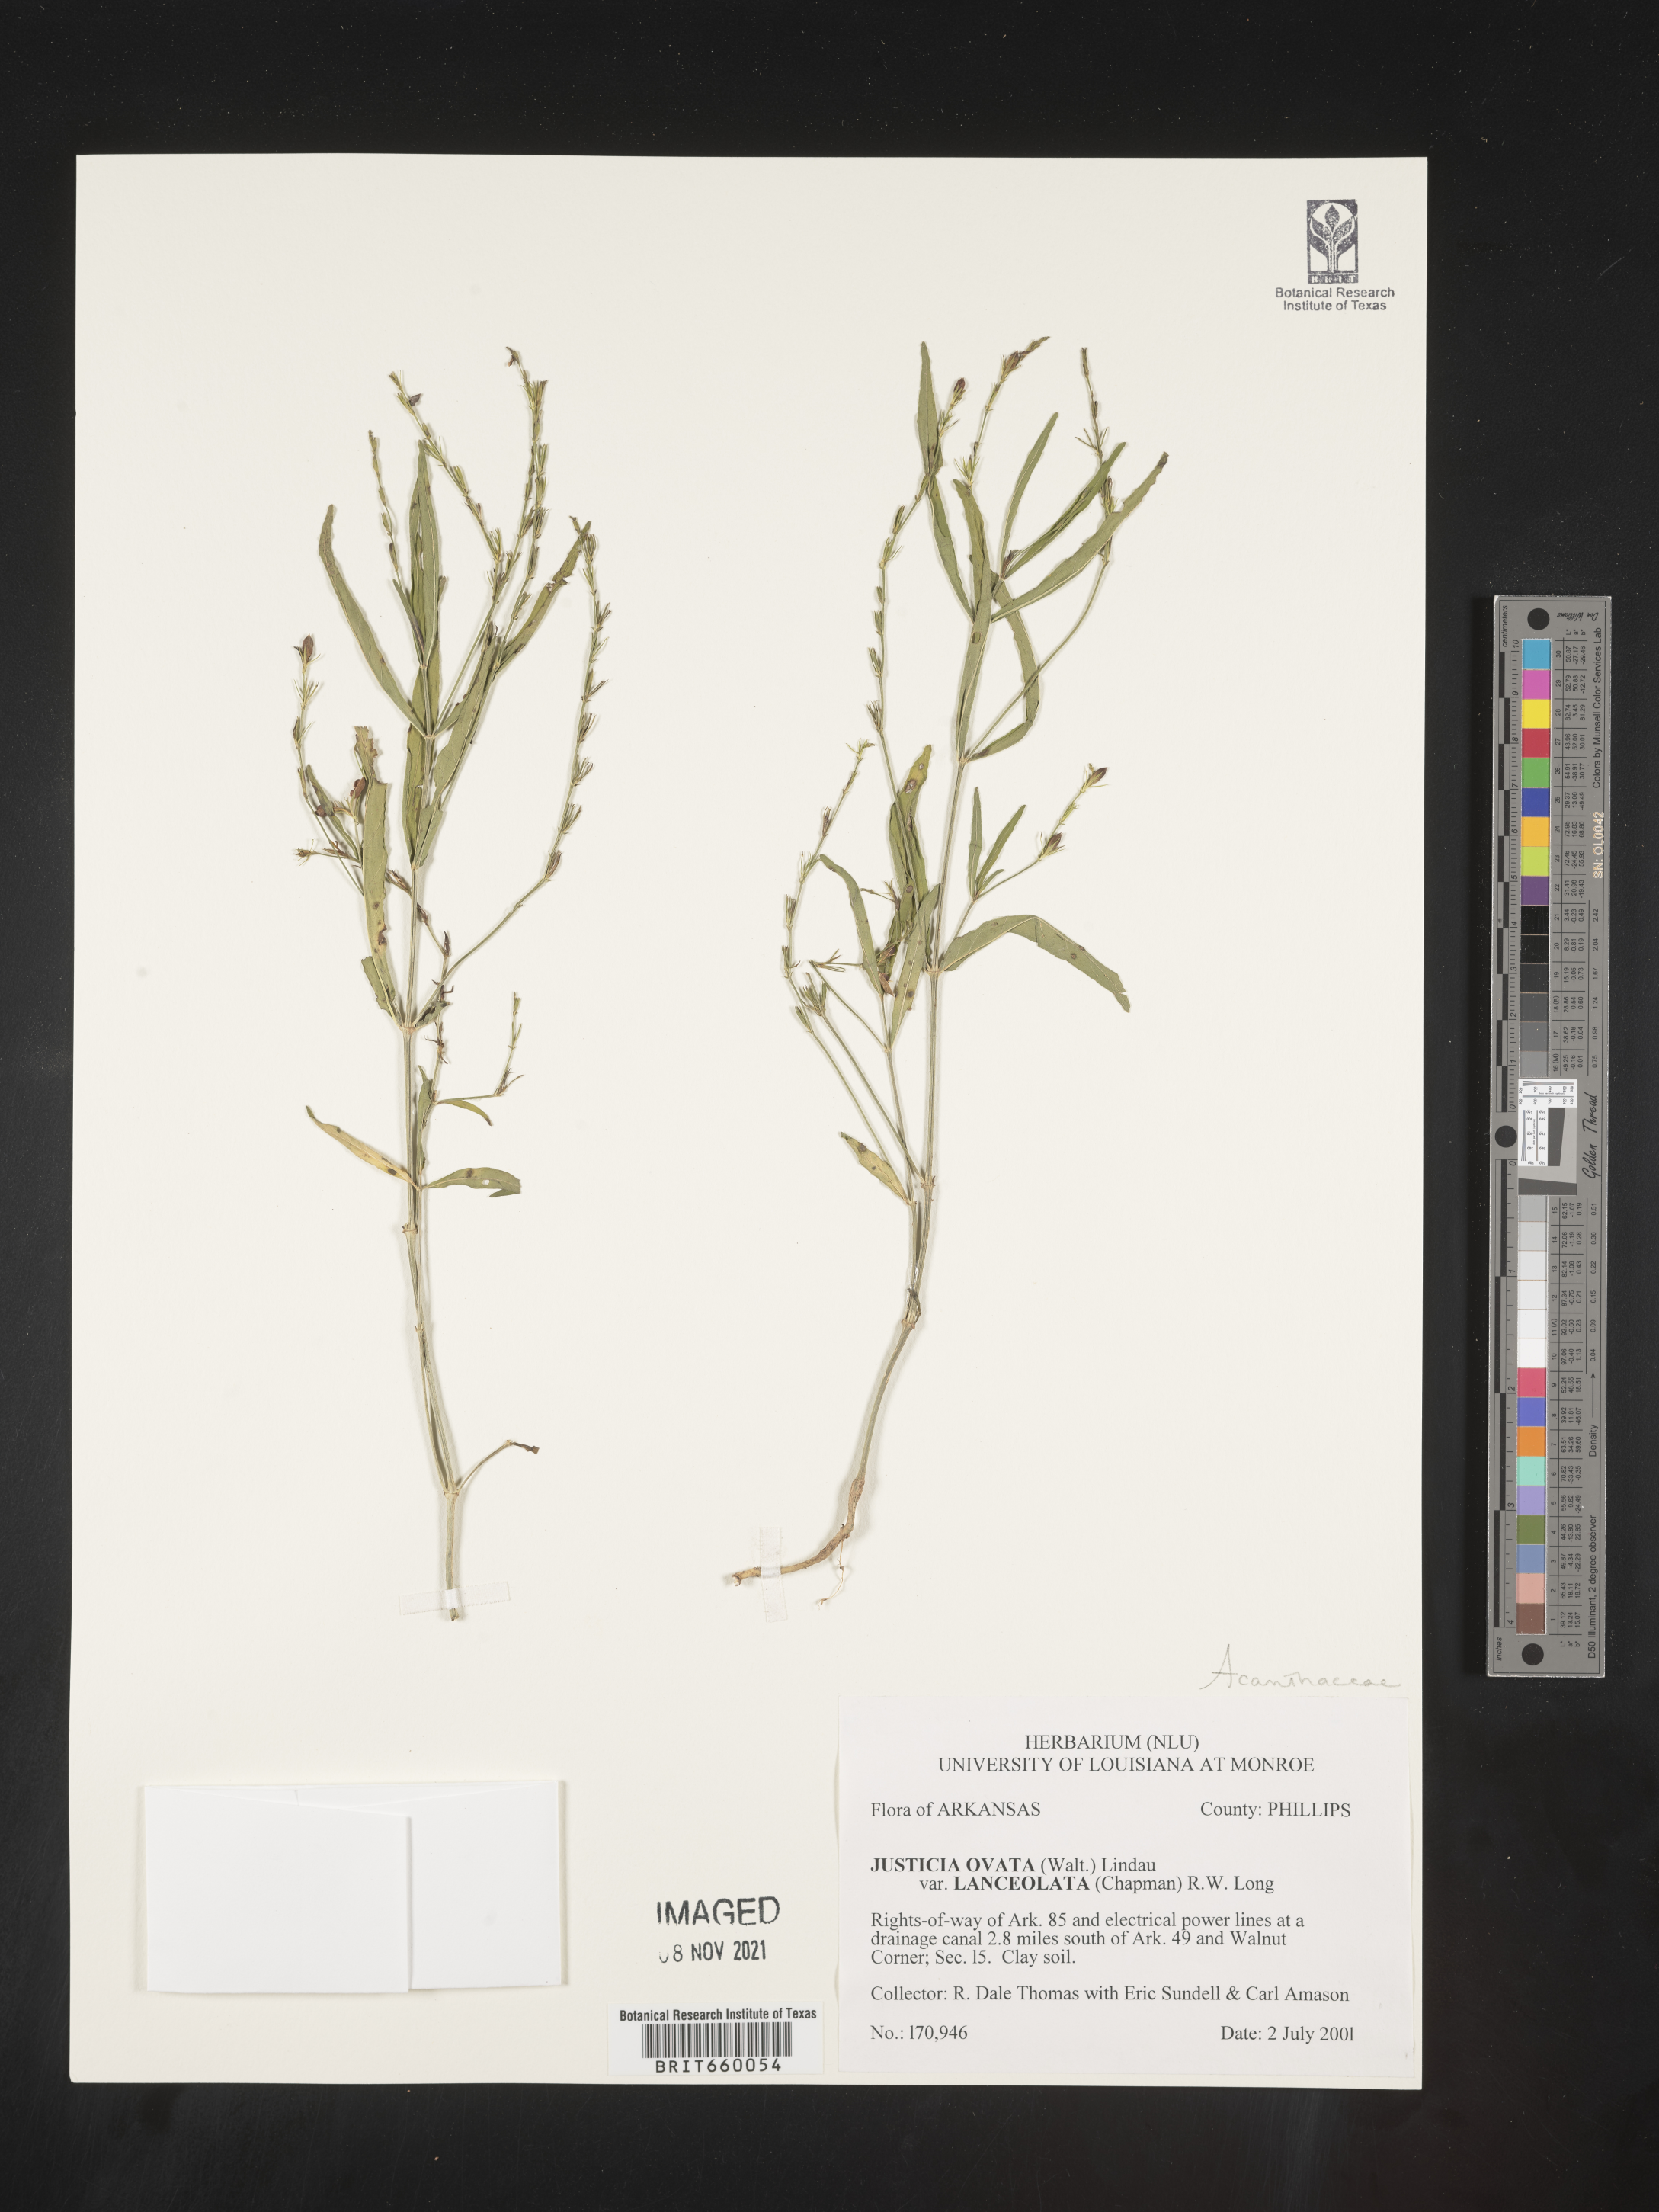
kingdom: Plantae
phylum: Tracheophyta
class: Magnoliopsida
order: Lamiales
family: Acanthaceae
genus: Justicia
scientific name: Justicia lanceolata
